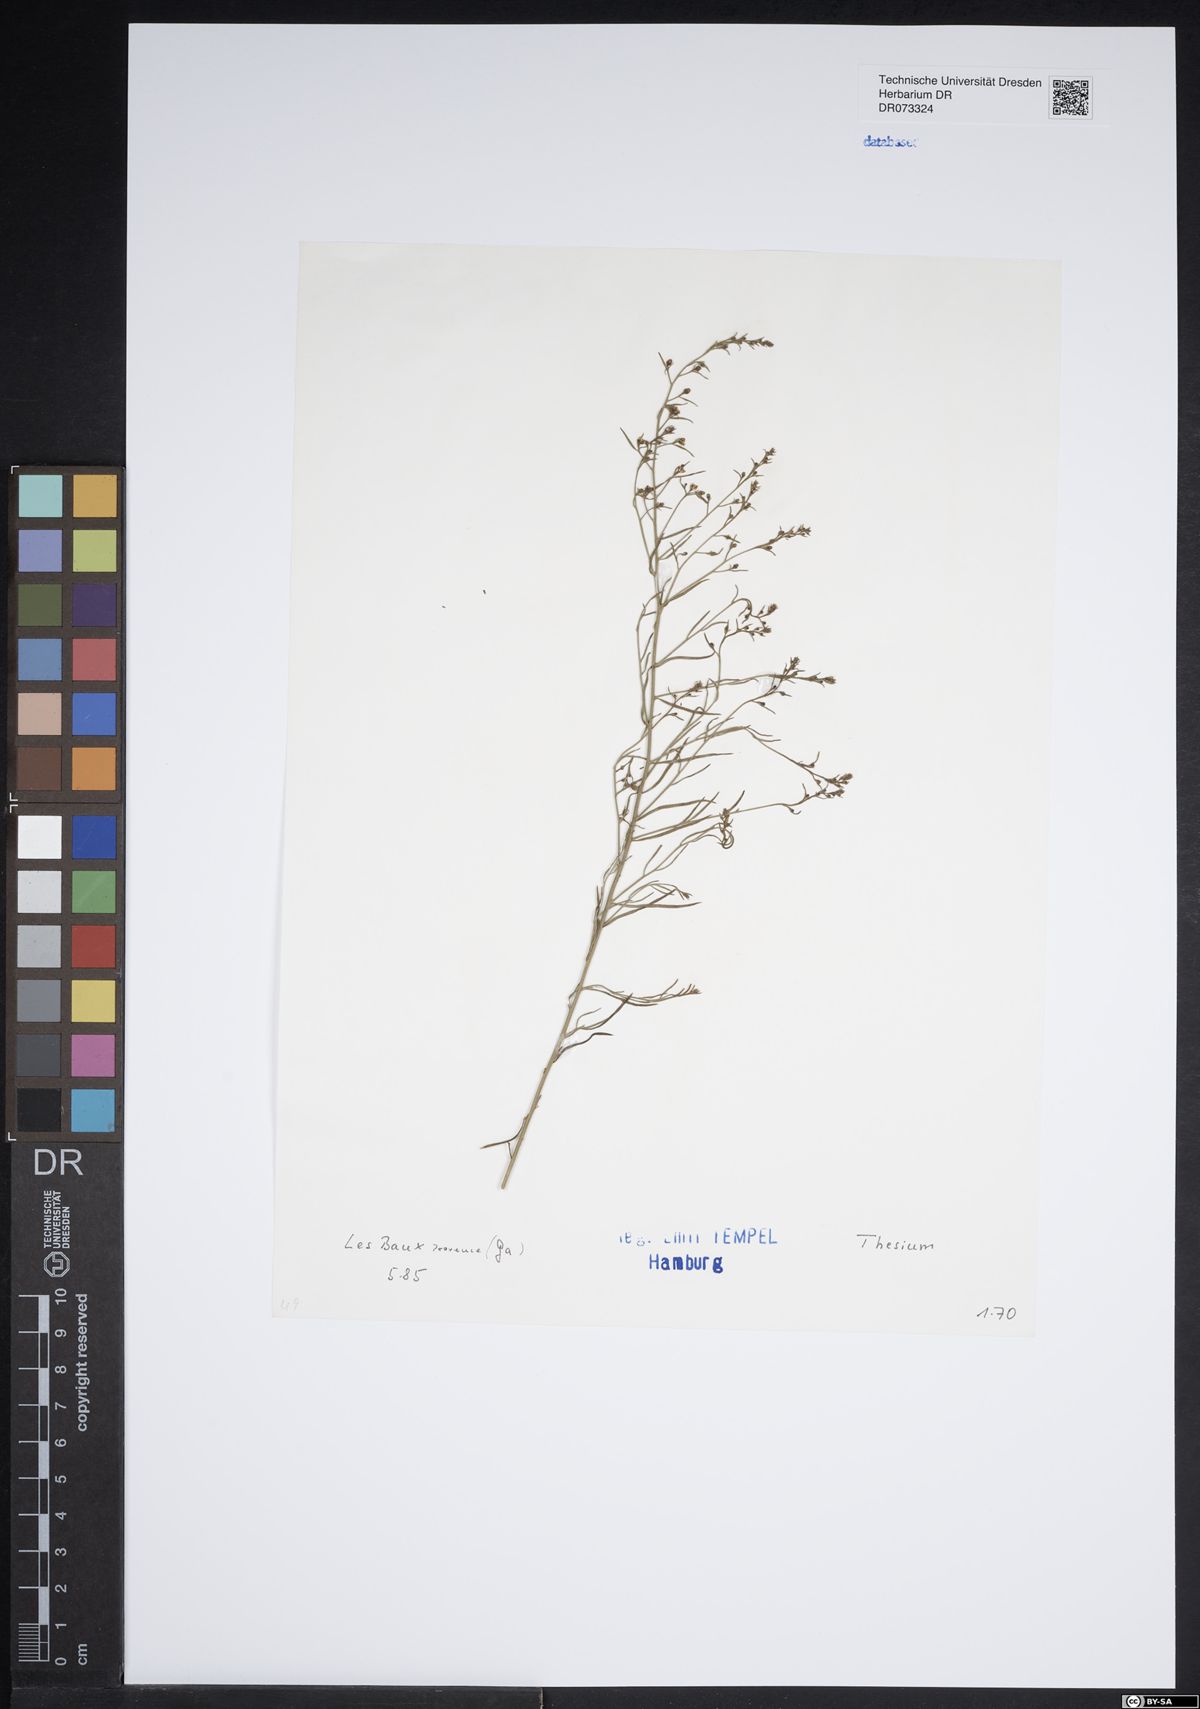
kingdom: Plantae
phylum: Tracheophyta
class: Magnoliopsida
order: Santalales
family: Thesiaceae
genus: Thesium
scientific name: Thesium
